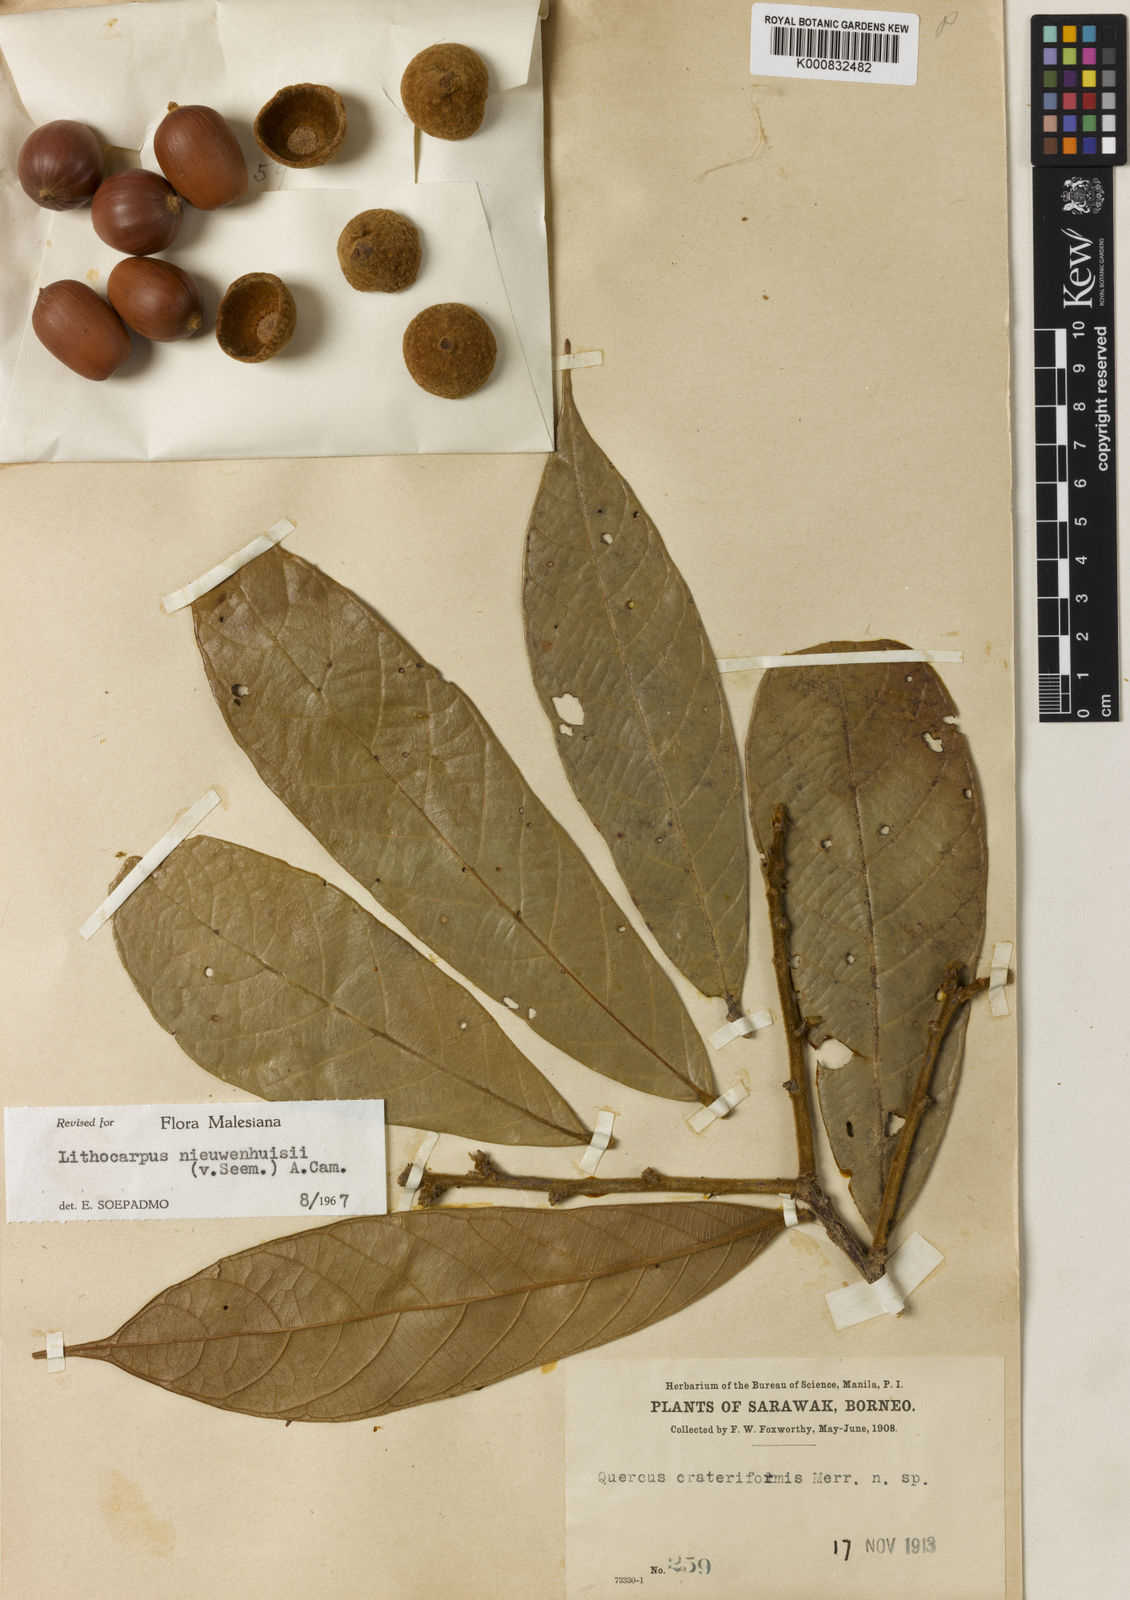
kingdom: Plantae
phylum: Tracheophyta
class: Magnoliopsida
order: Fagales
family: Fagaceae
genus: Lithocarpus
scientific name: Lithocarpus nieuwenhuisii
